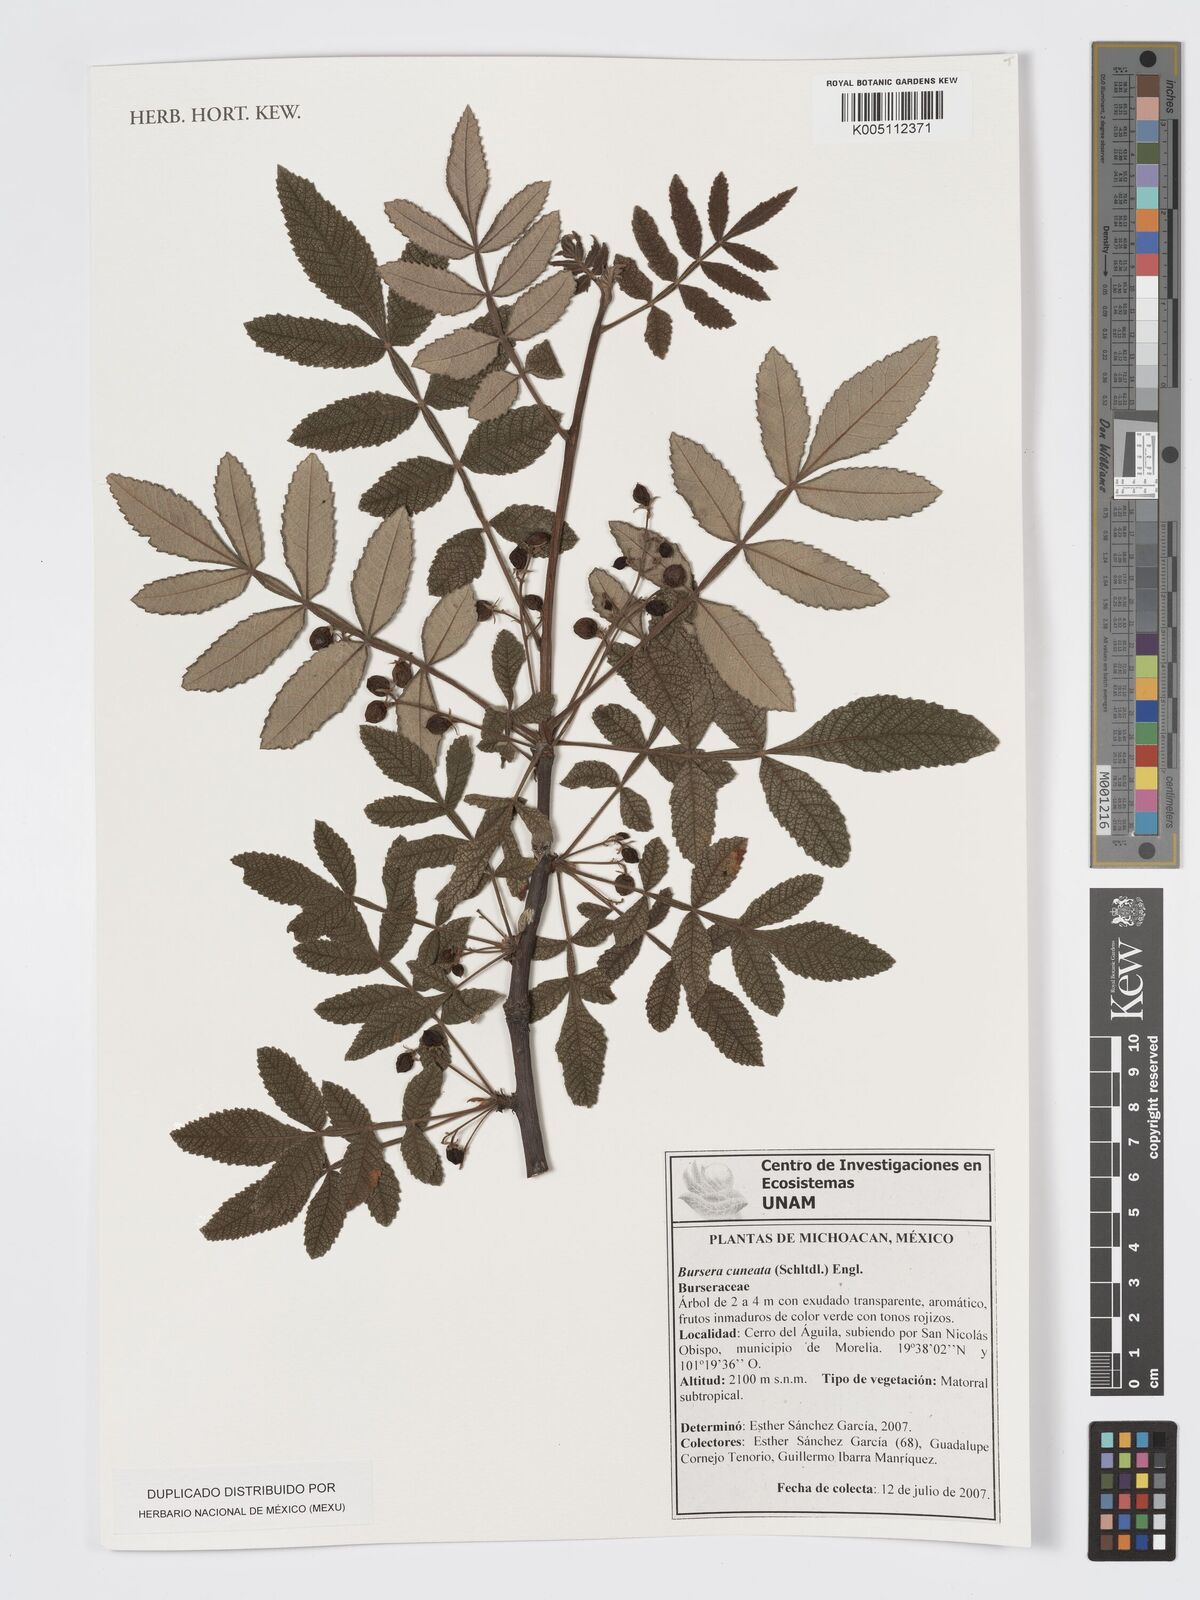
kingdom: Plantae
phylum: Tracheophyta
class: Magnoliopsida
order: Sapindales
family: Burseraceae
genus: Bursera
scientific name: Bursera cuneata
